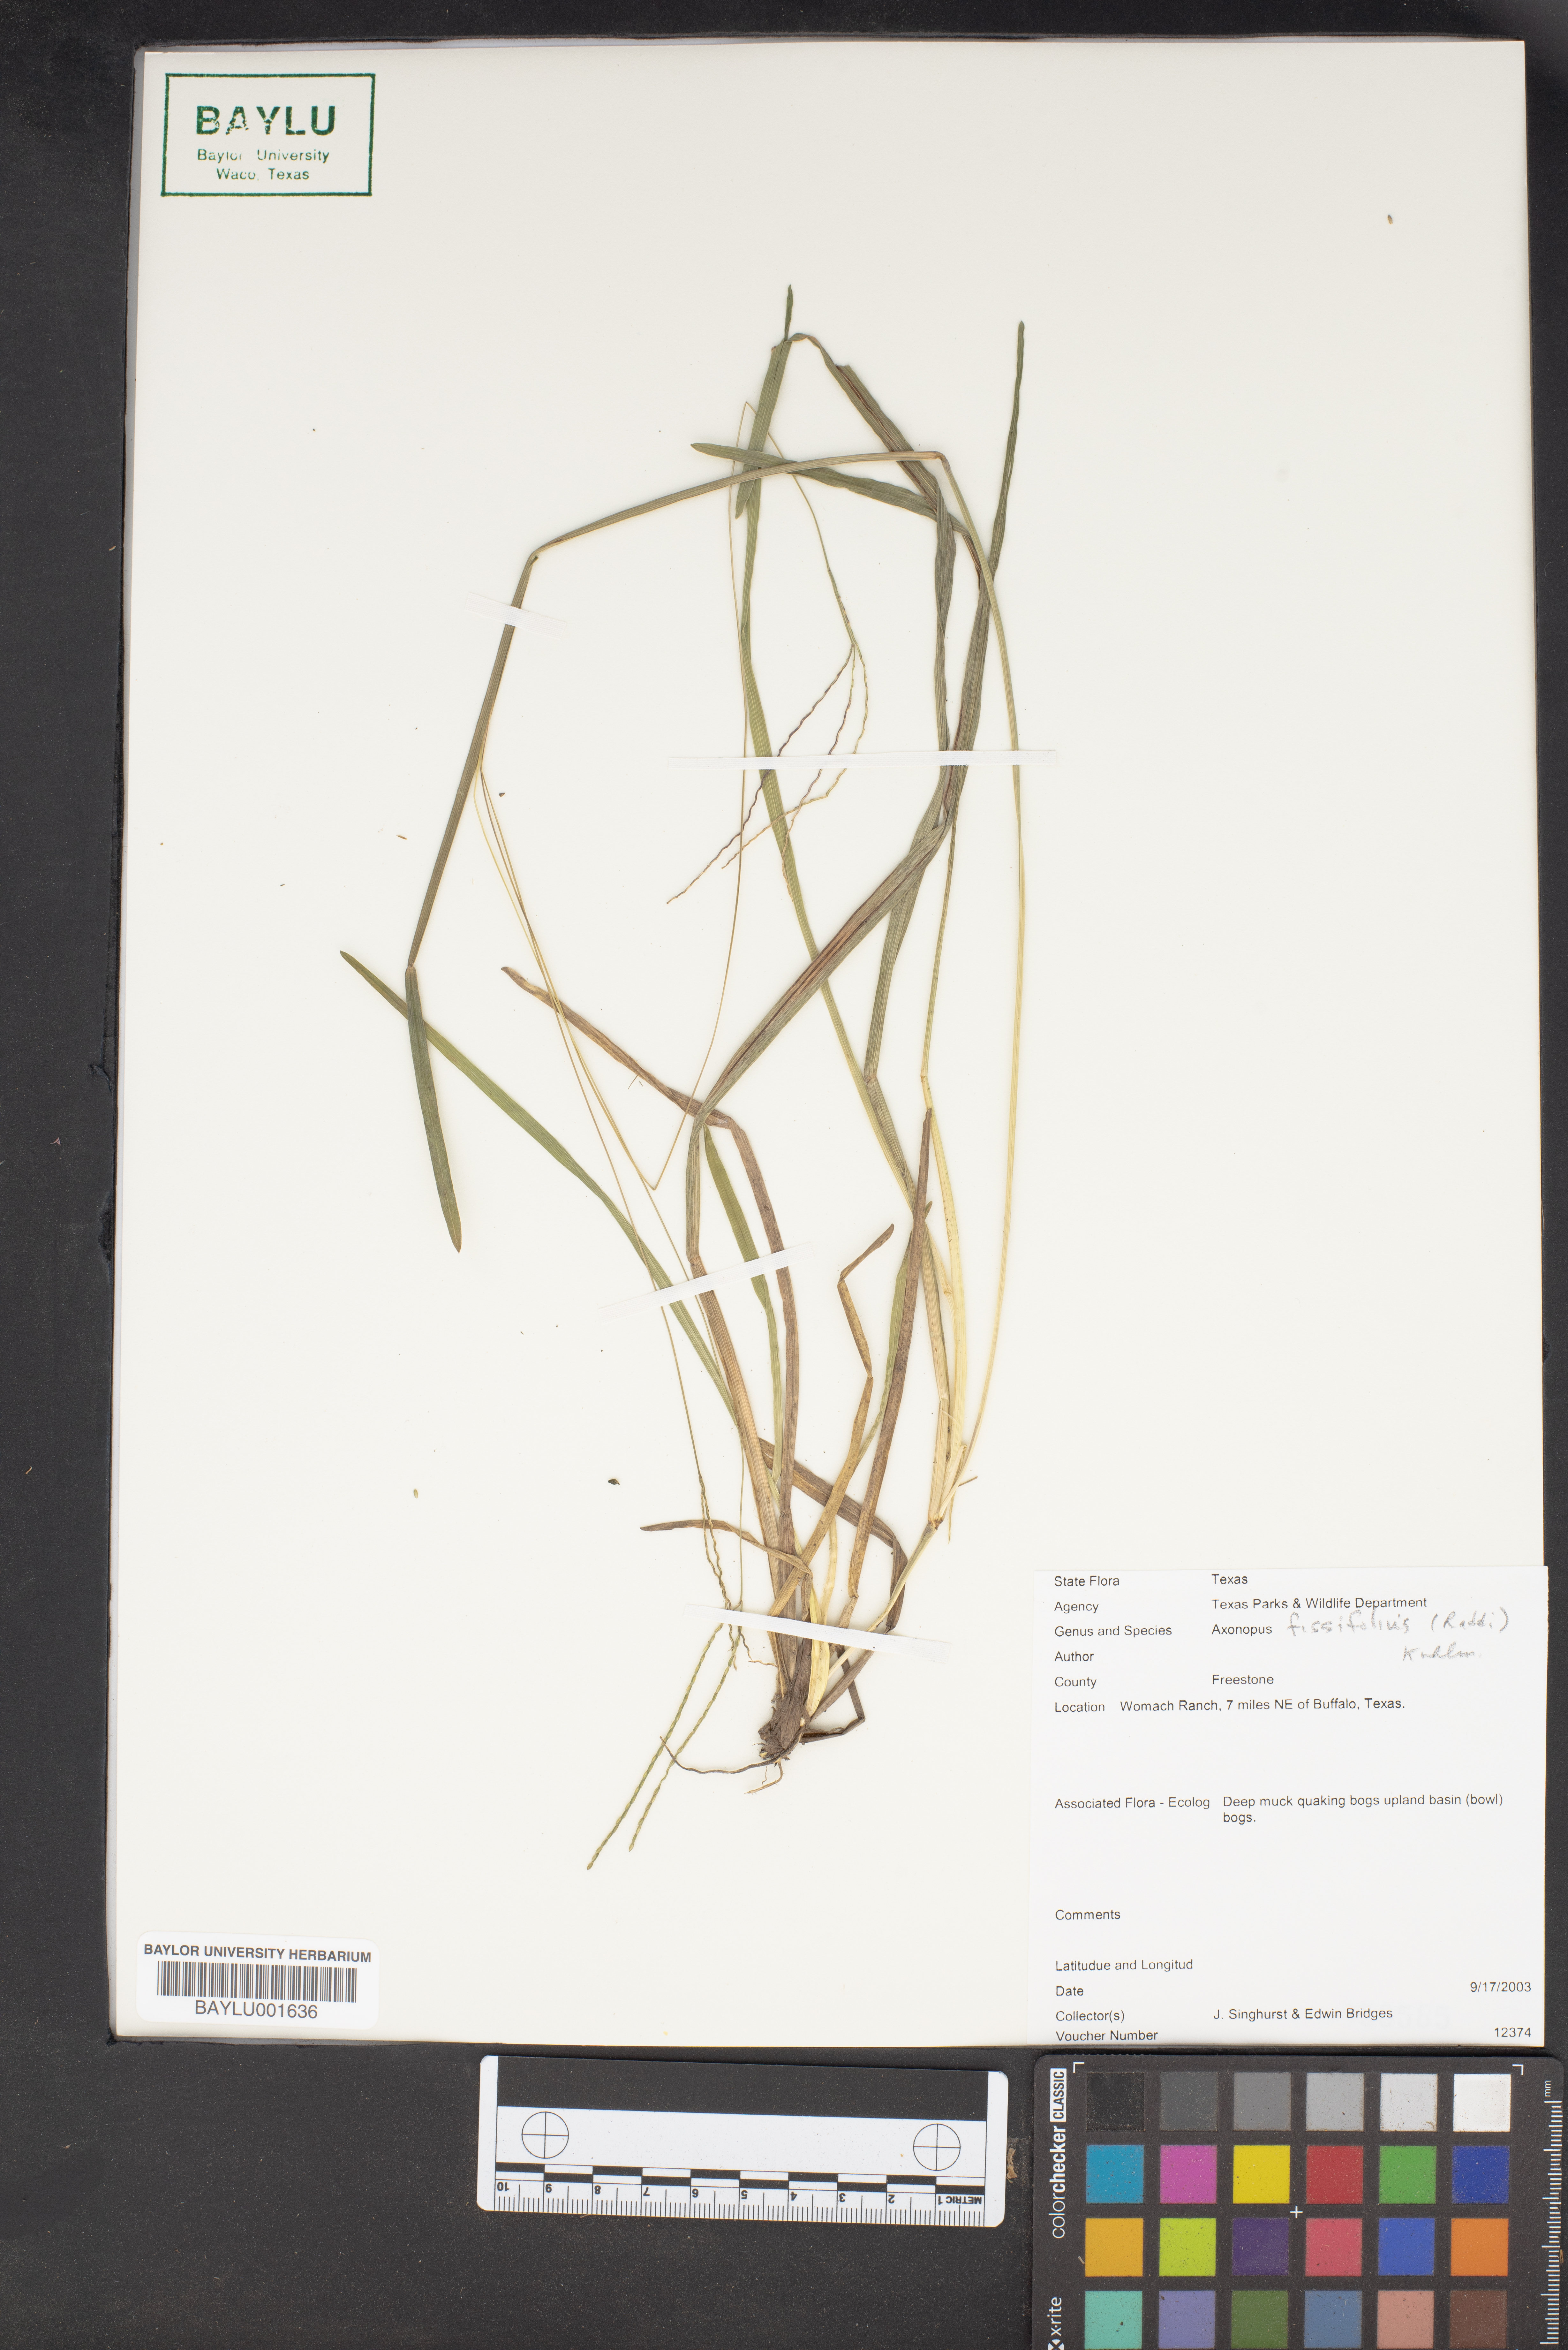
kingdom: Plantae
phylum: Tracheophyta
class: Liliopsida
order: Poales
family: Poaceae
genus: Axonopus
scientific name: Axonopus fissifolius
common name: Common carpetgrass
